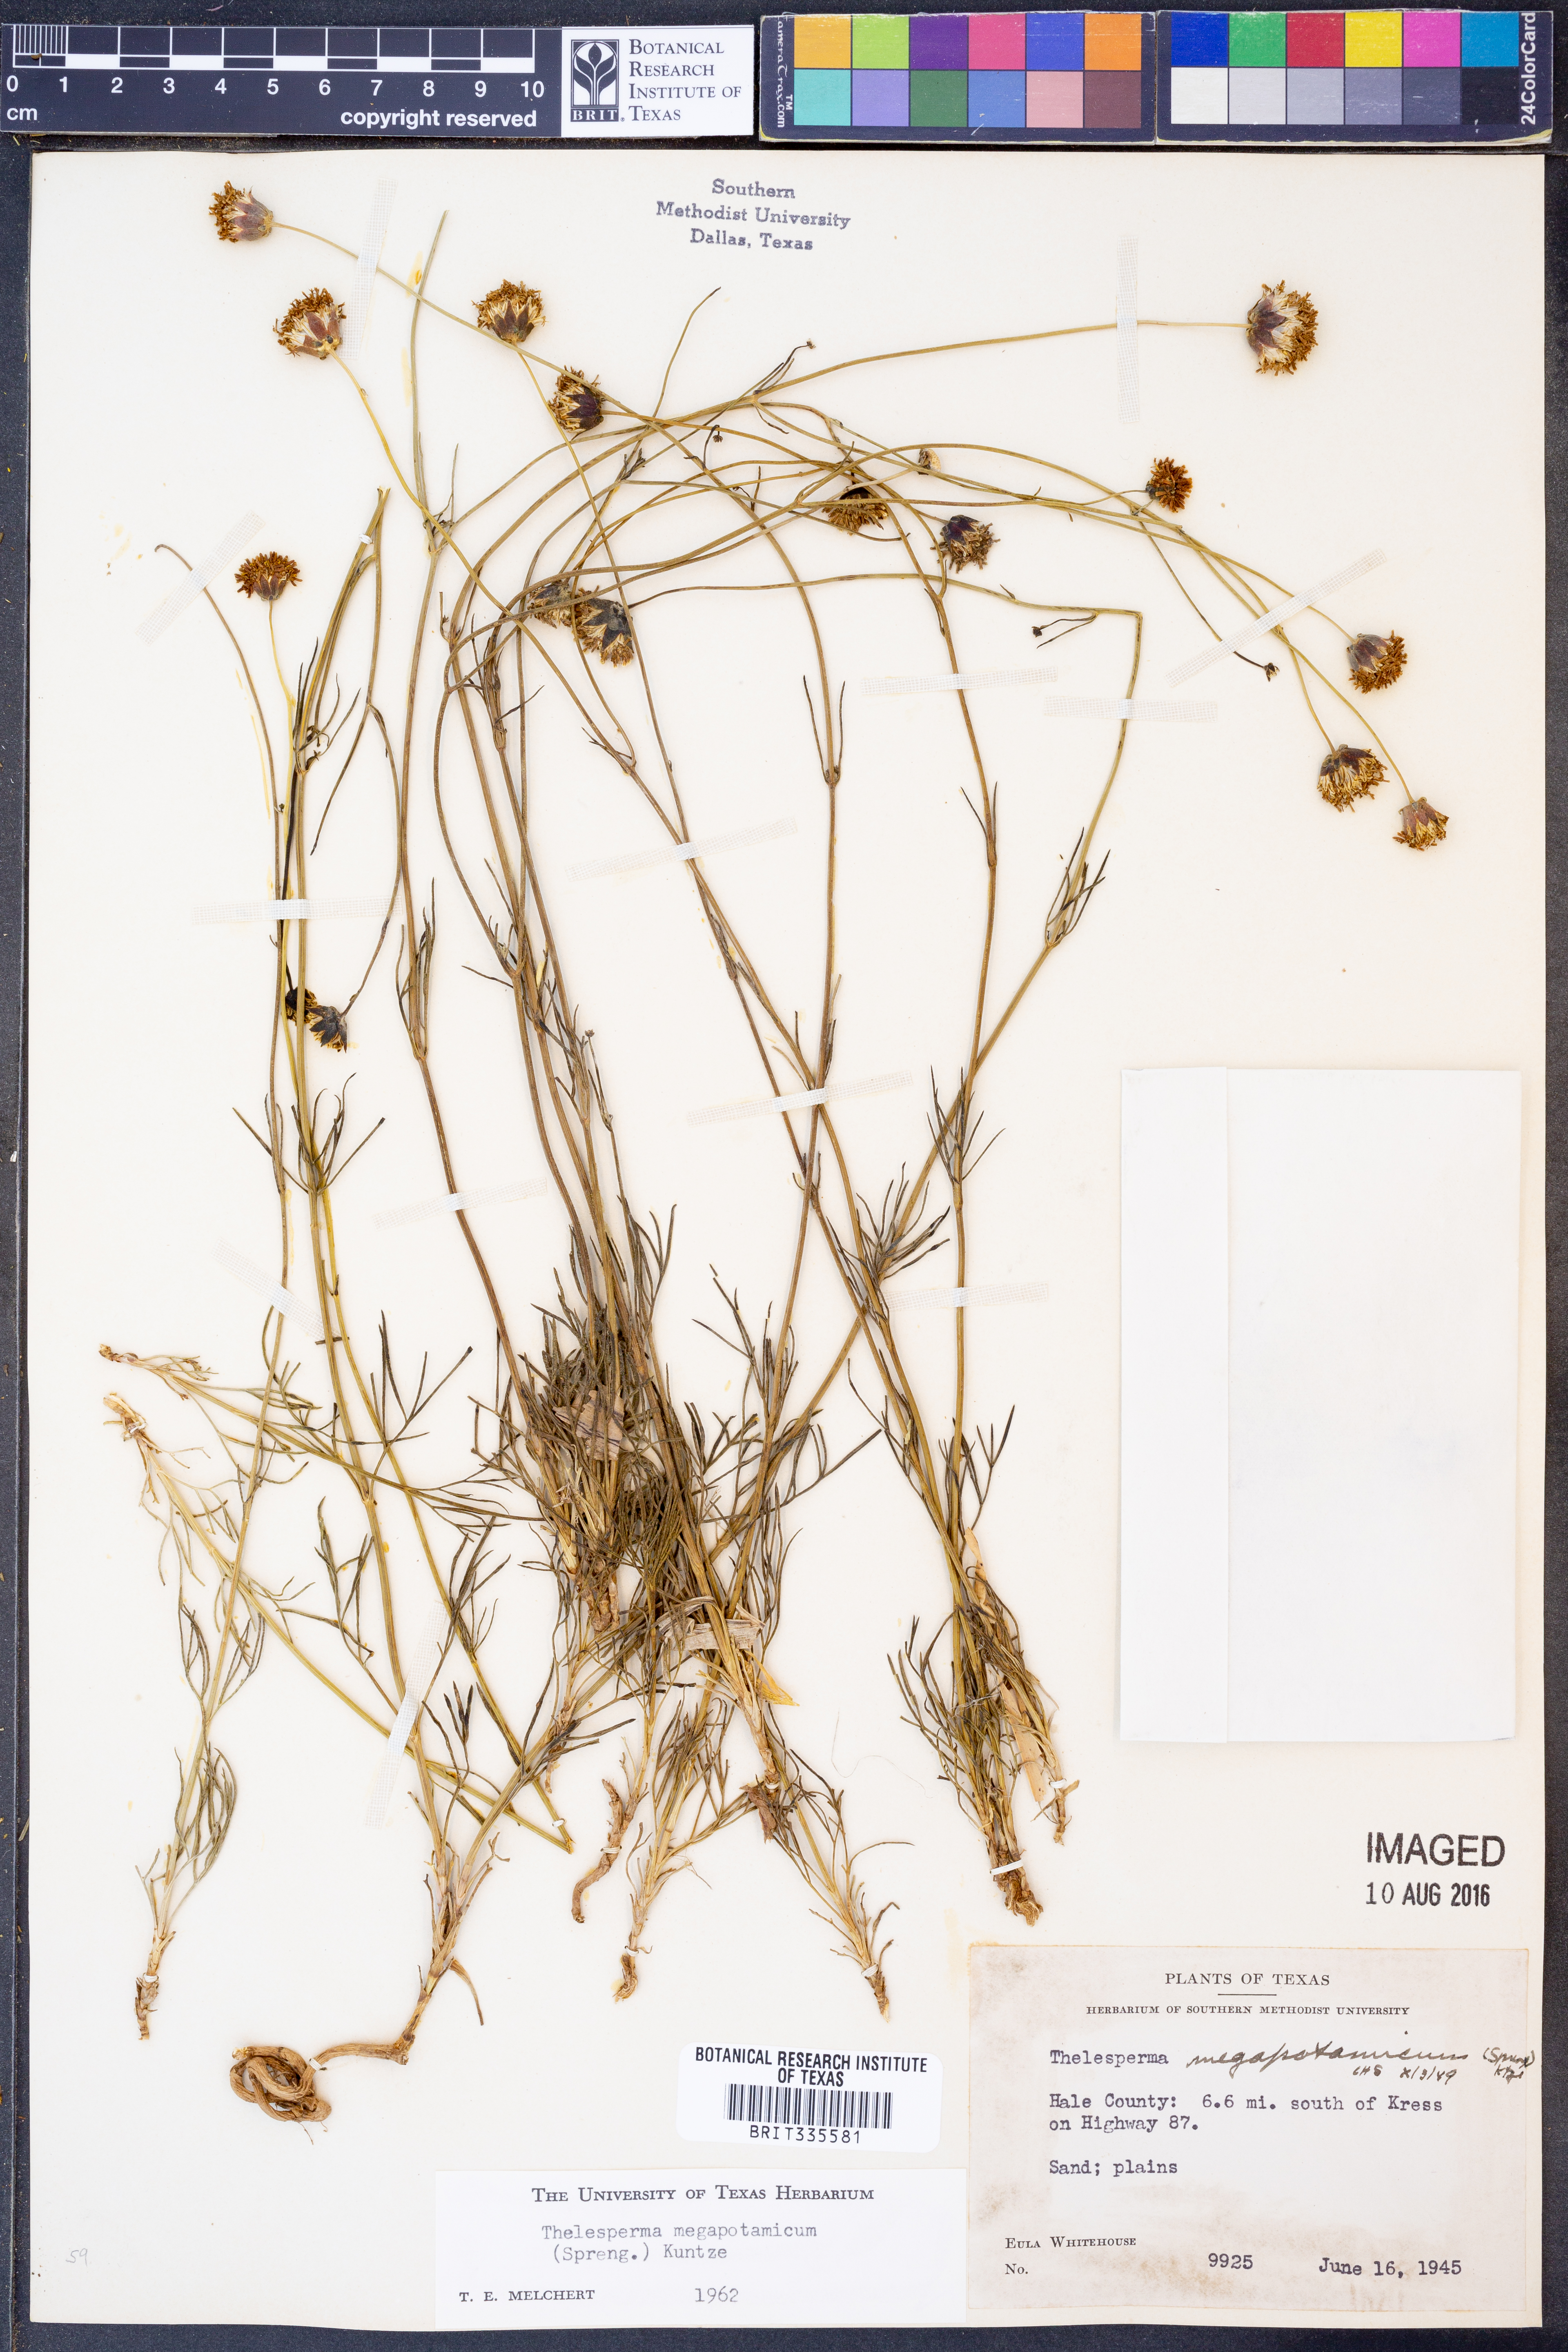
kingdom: Plantae
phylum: Tracheophyta
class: Magnoliopsida
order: Asterales
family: Asteraceae
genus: Thelesperma
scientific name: Thelesperma megapotamicum
